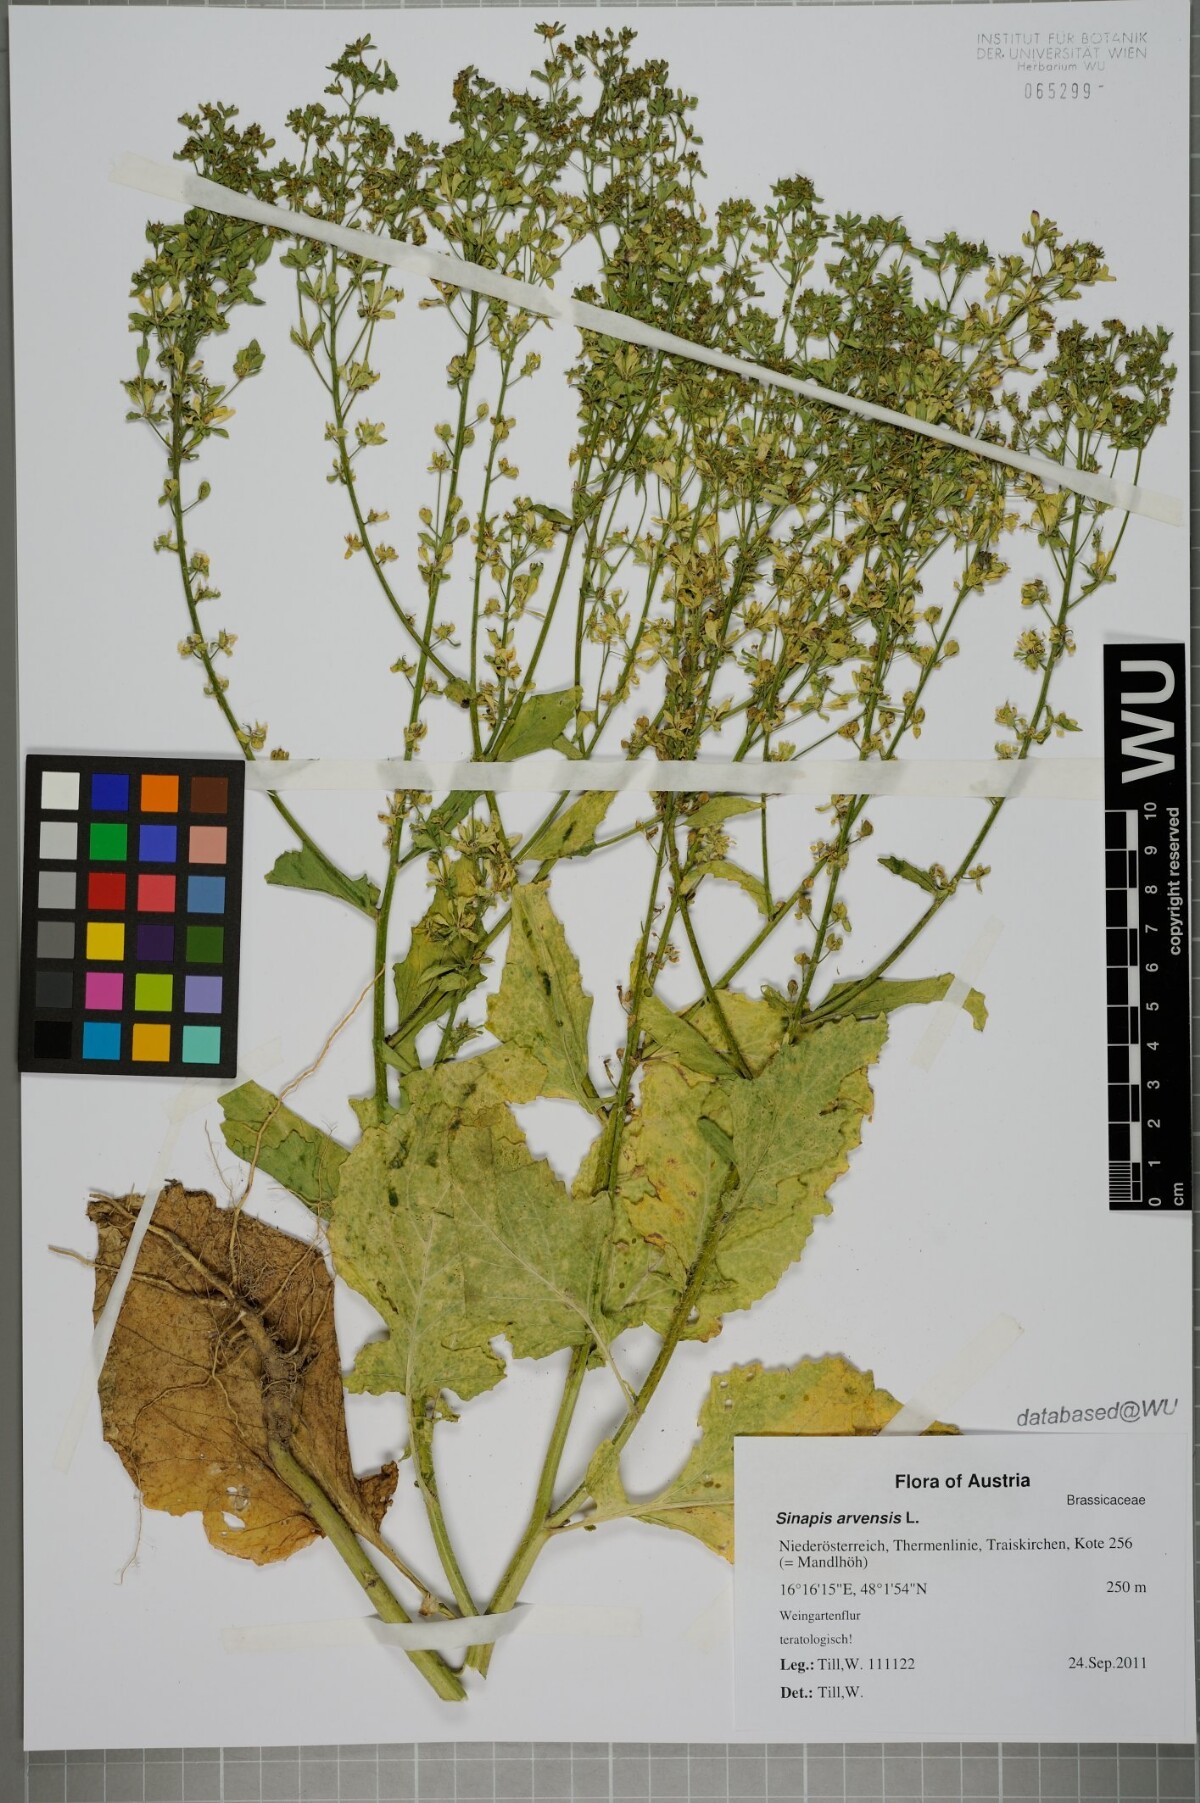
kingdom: Plantae
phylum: Tracheophyta
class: Magnoliopsida
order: Brassicales
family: Brassicaceae
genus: Sinapis
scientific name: Sinapis arvensis
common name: Charlock
